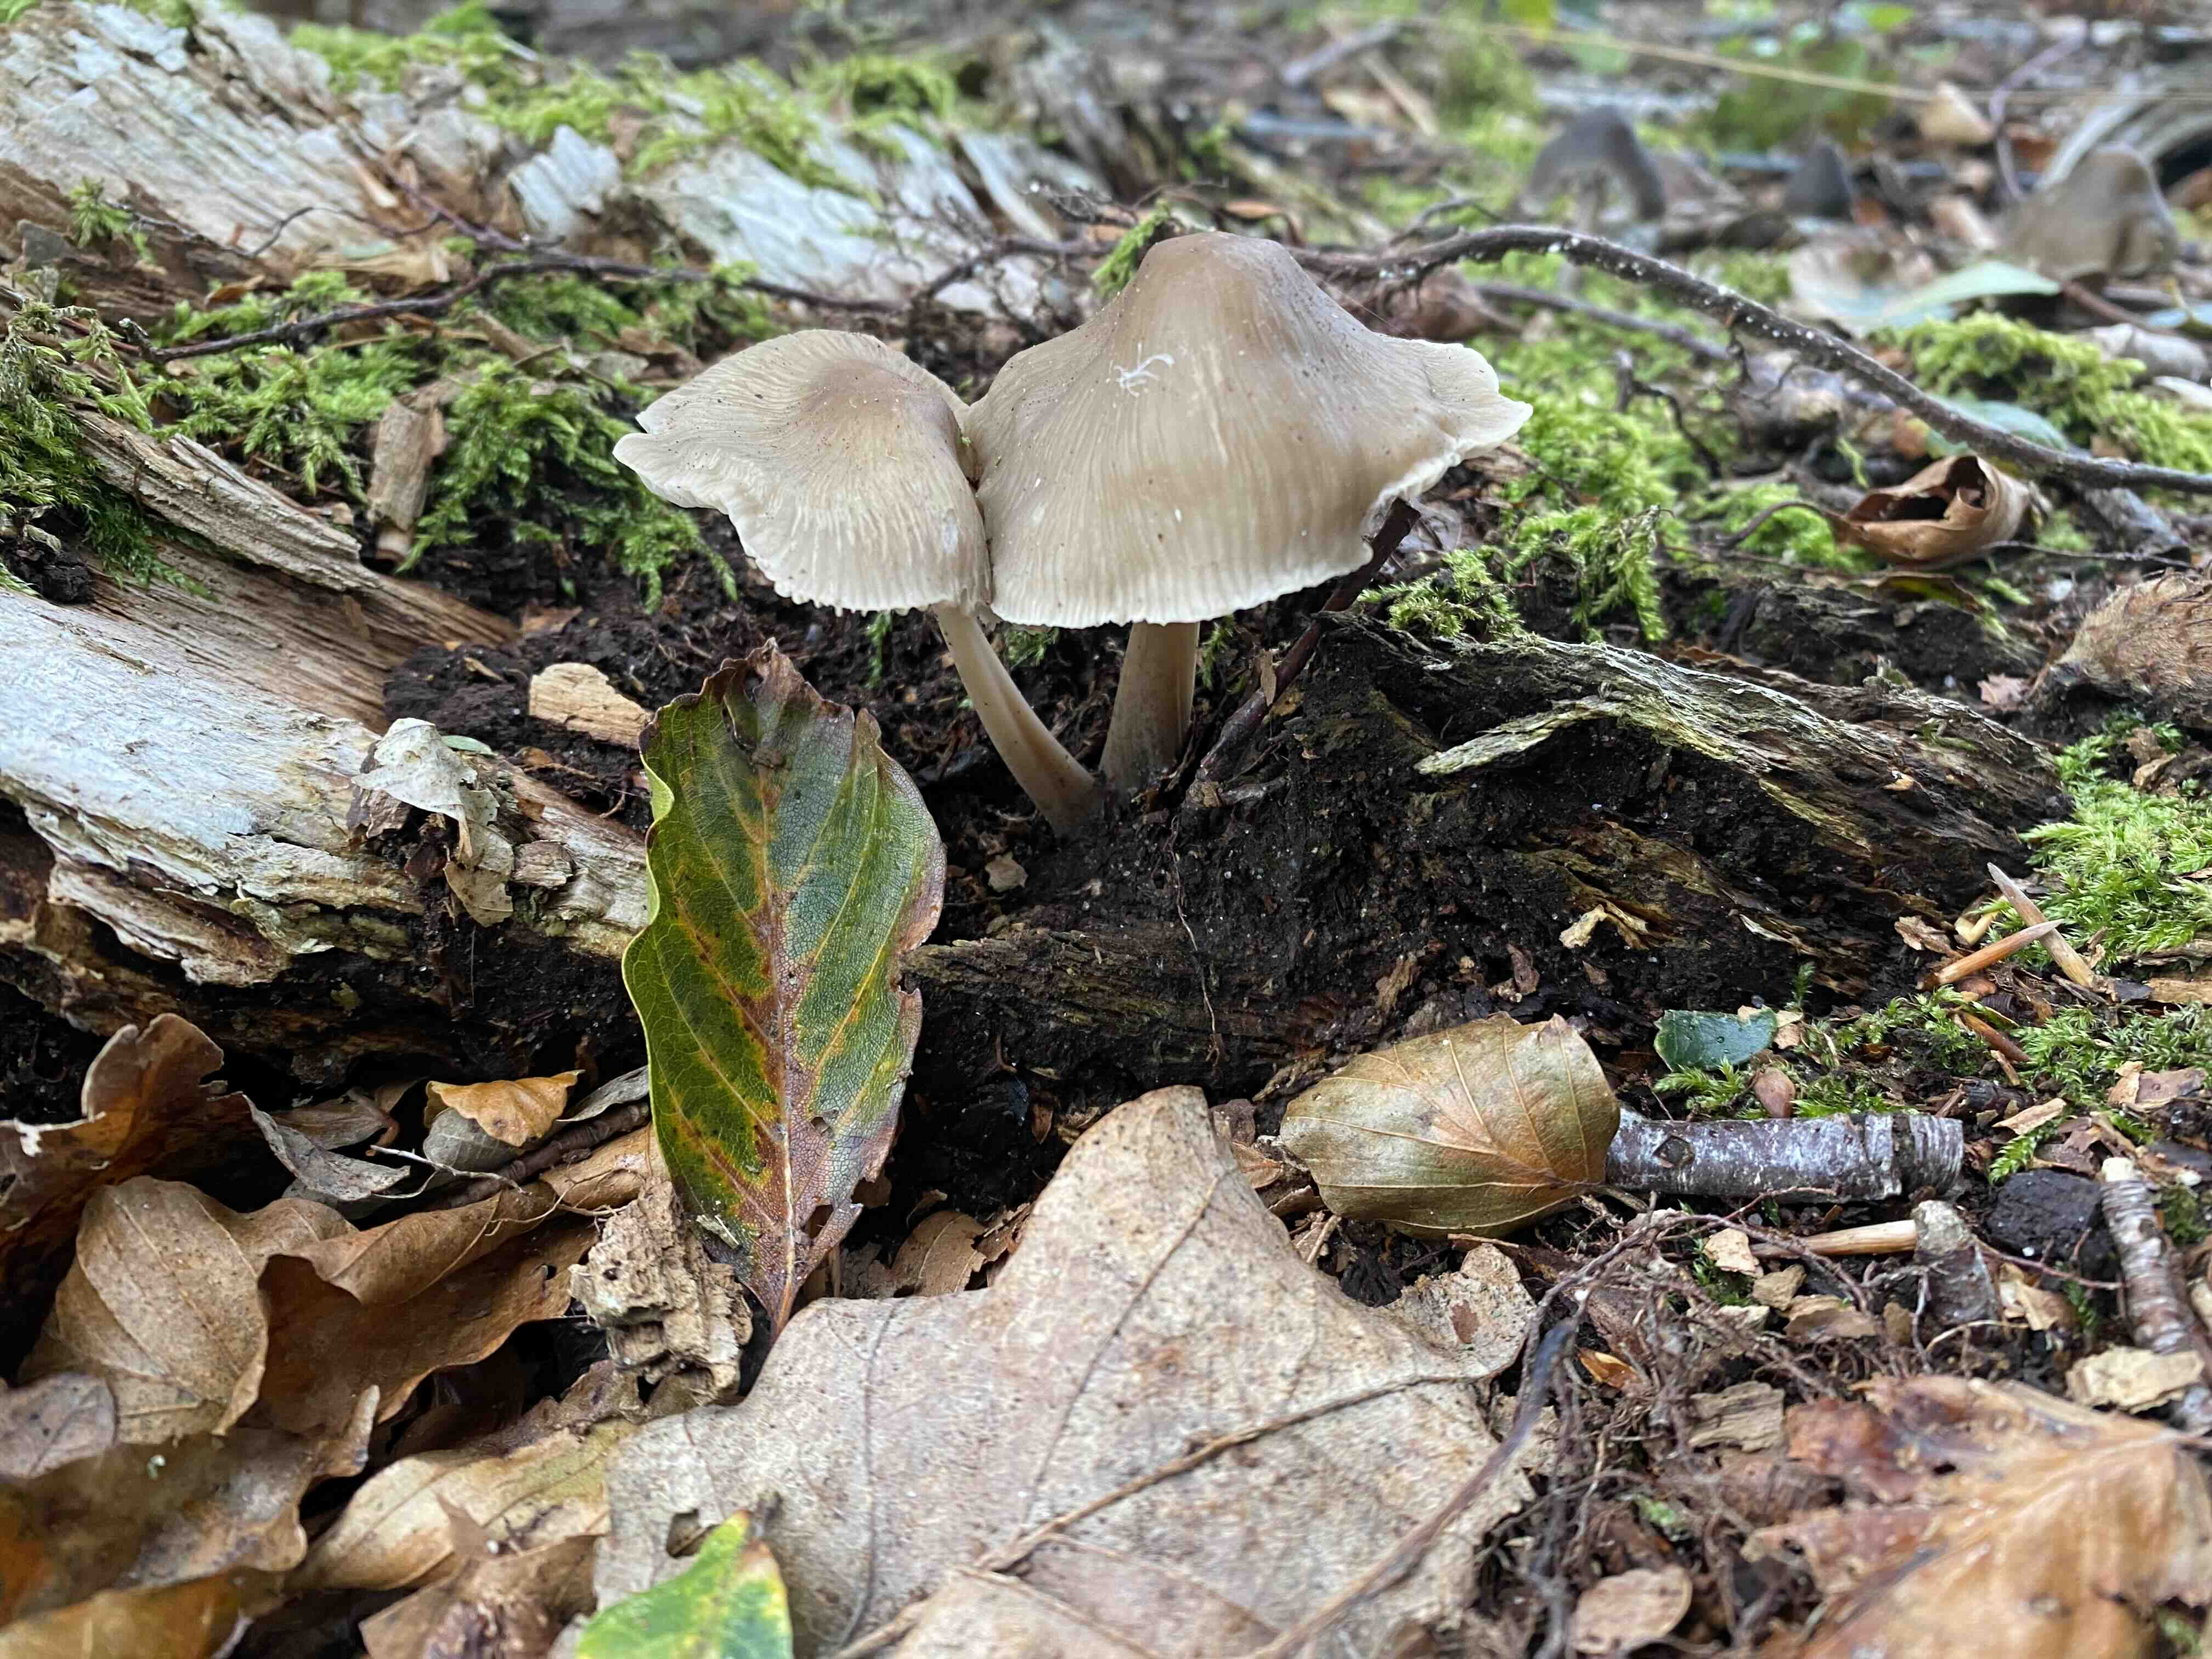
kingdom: Fungi
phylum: Basidiomycota
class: Agaricomycetes
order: Agaricales
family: Mycenaceae
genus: Mycena
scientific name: Mycena galericulata
